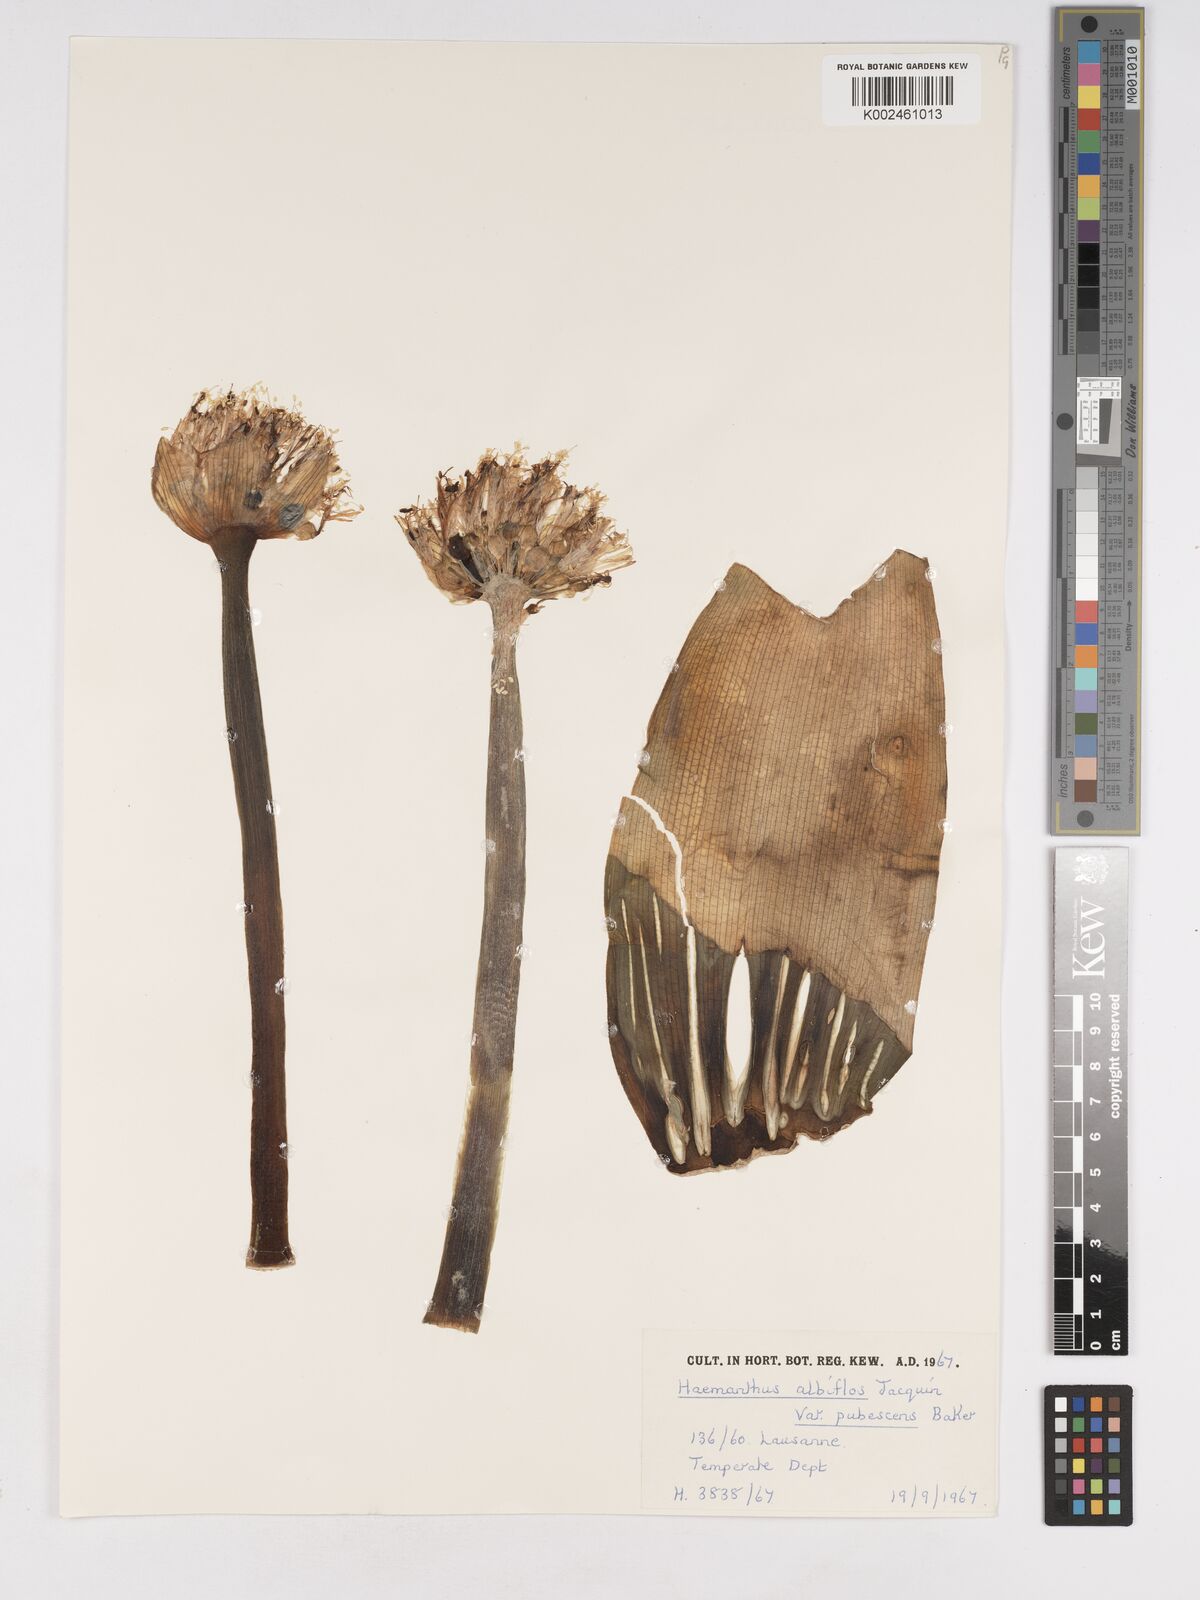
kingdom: Plantae
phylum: Tracheophyta
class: Liliopsida
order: Asparagales
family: Amaryllidaceae
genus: Haemanthus
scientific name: Haemanthus albiflos
